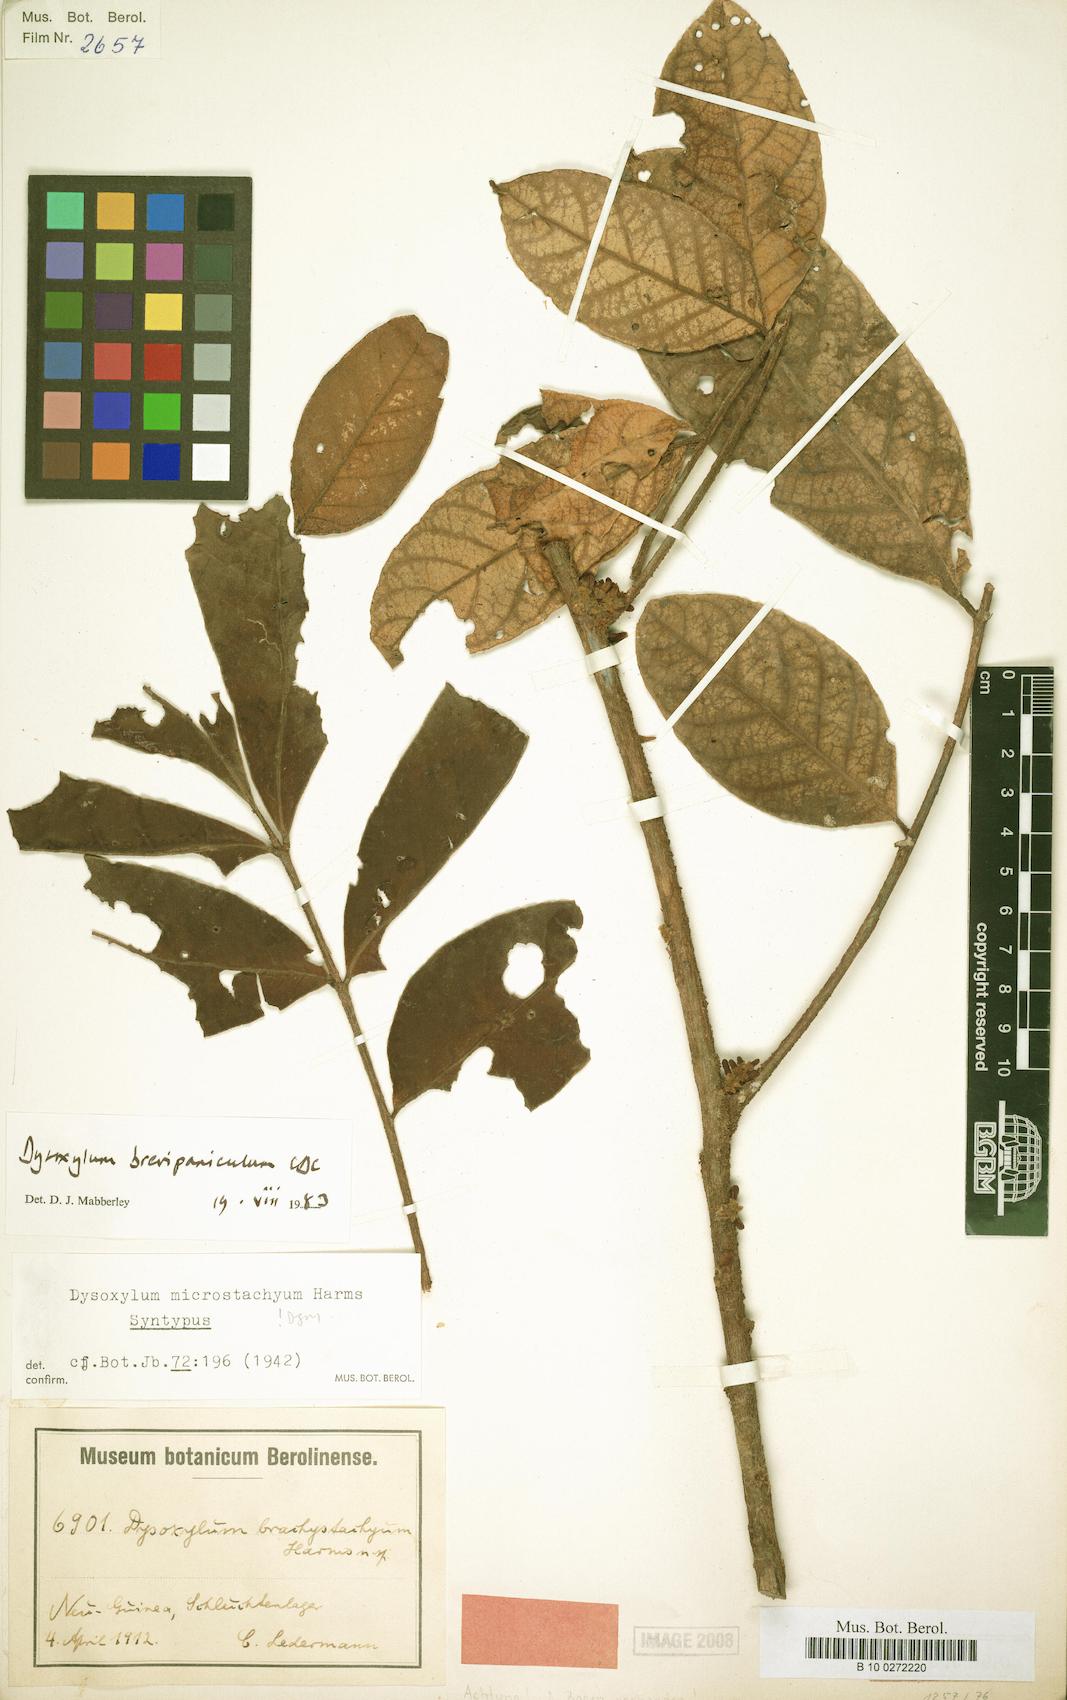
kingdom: Plantae
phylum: Tracheophyta
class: Magnoliopsida
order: Sapindales
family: Meliaceae
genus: Epicharis
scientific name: Epicharis brevipanicula
